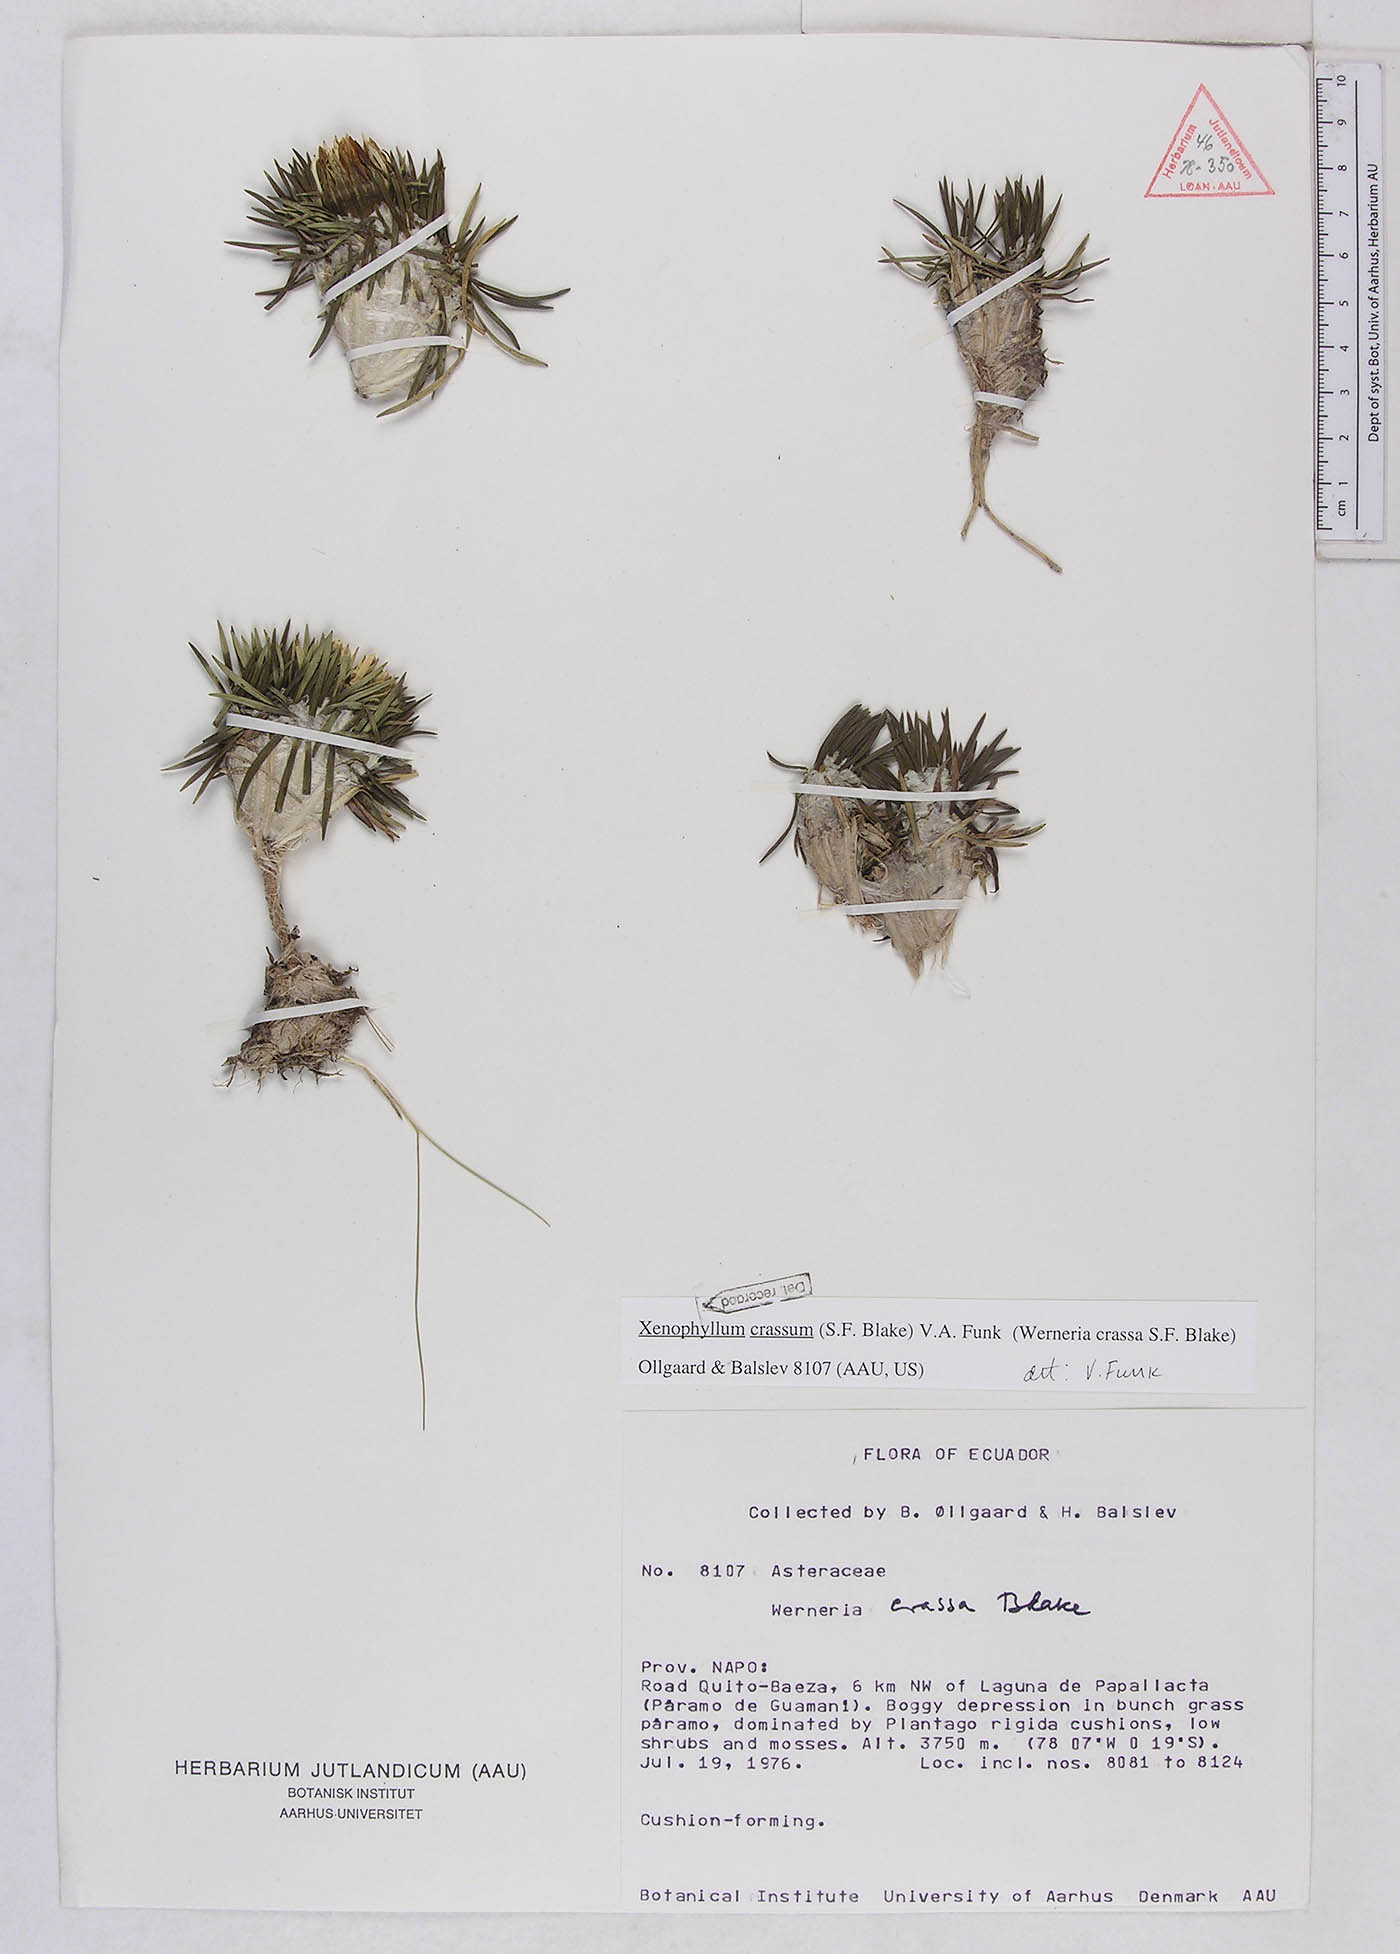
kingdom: Plantae
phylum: Tracheophyta
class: Magnoliopsida
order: Asterales
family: Asteraceae
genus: Werneria
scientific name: Werneria crassa
